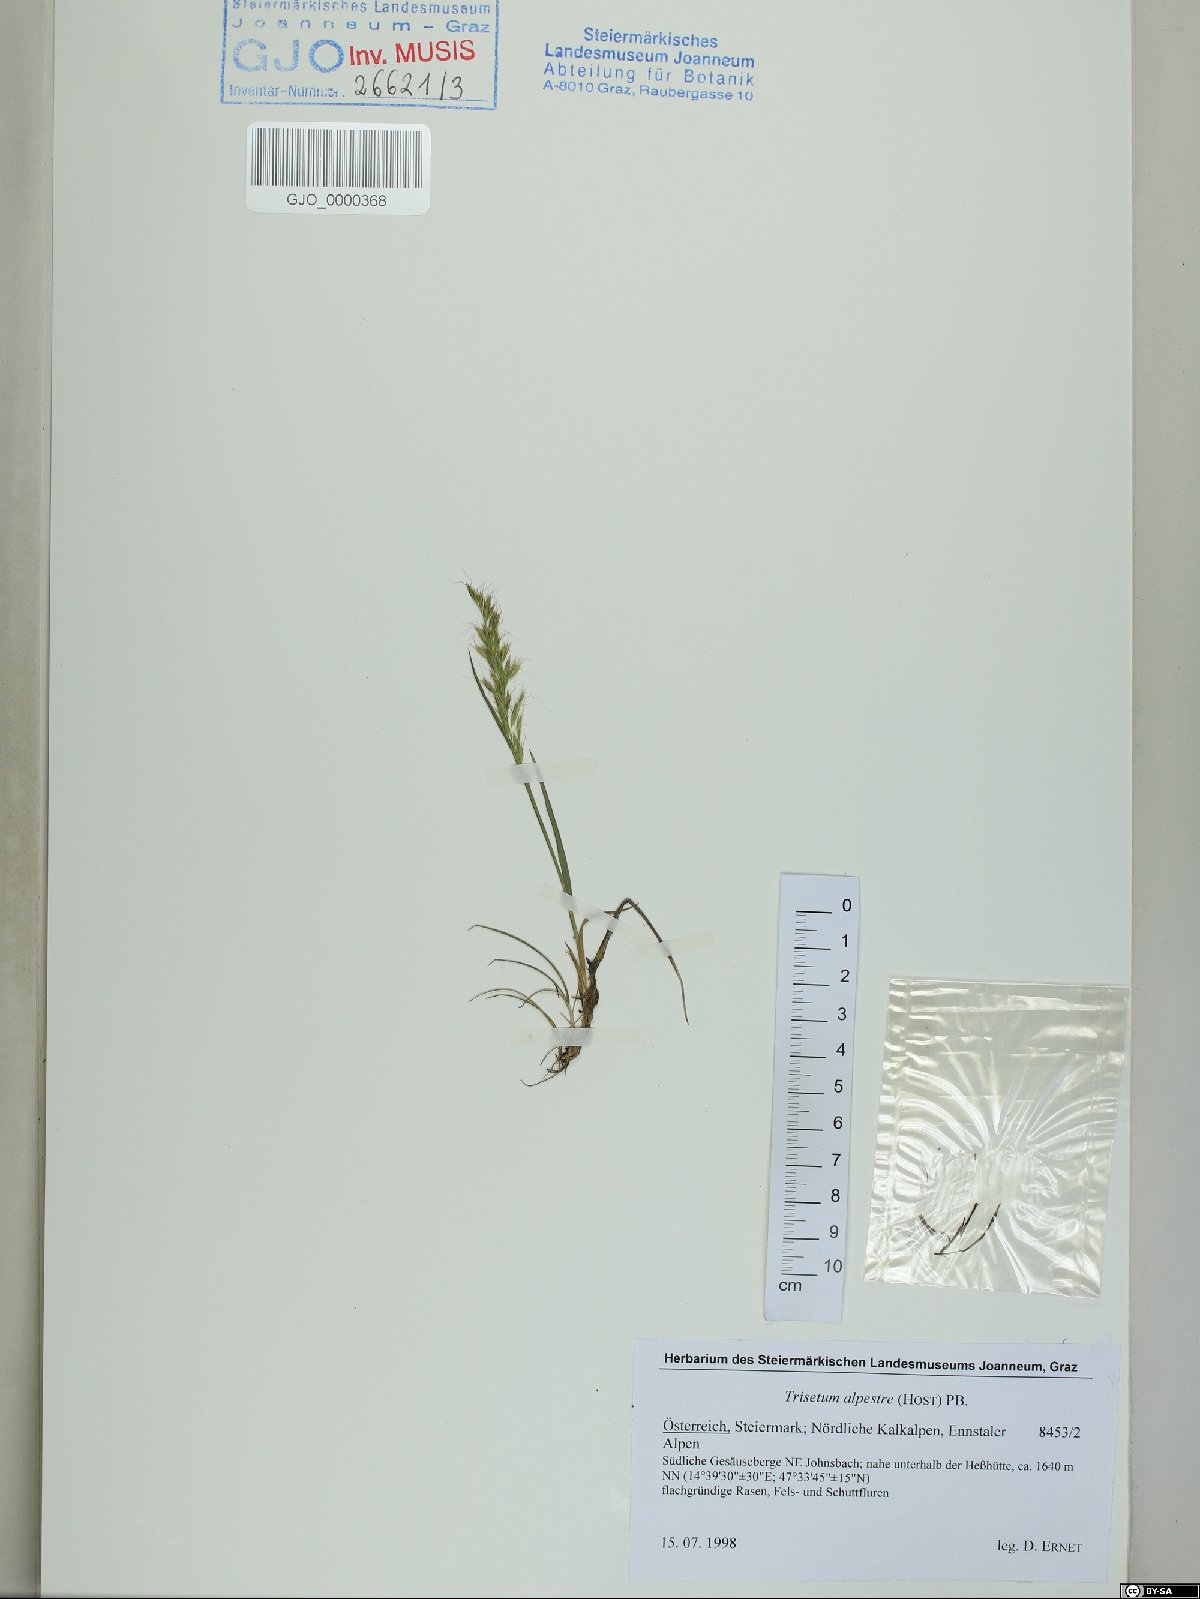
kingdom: Plantae
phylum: Tracheophyta
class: Liliopsida
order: Poales
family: Poaceae
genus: Trisetum
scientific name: Trisetum alpestre
